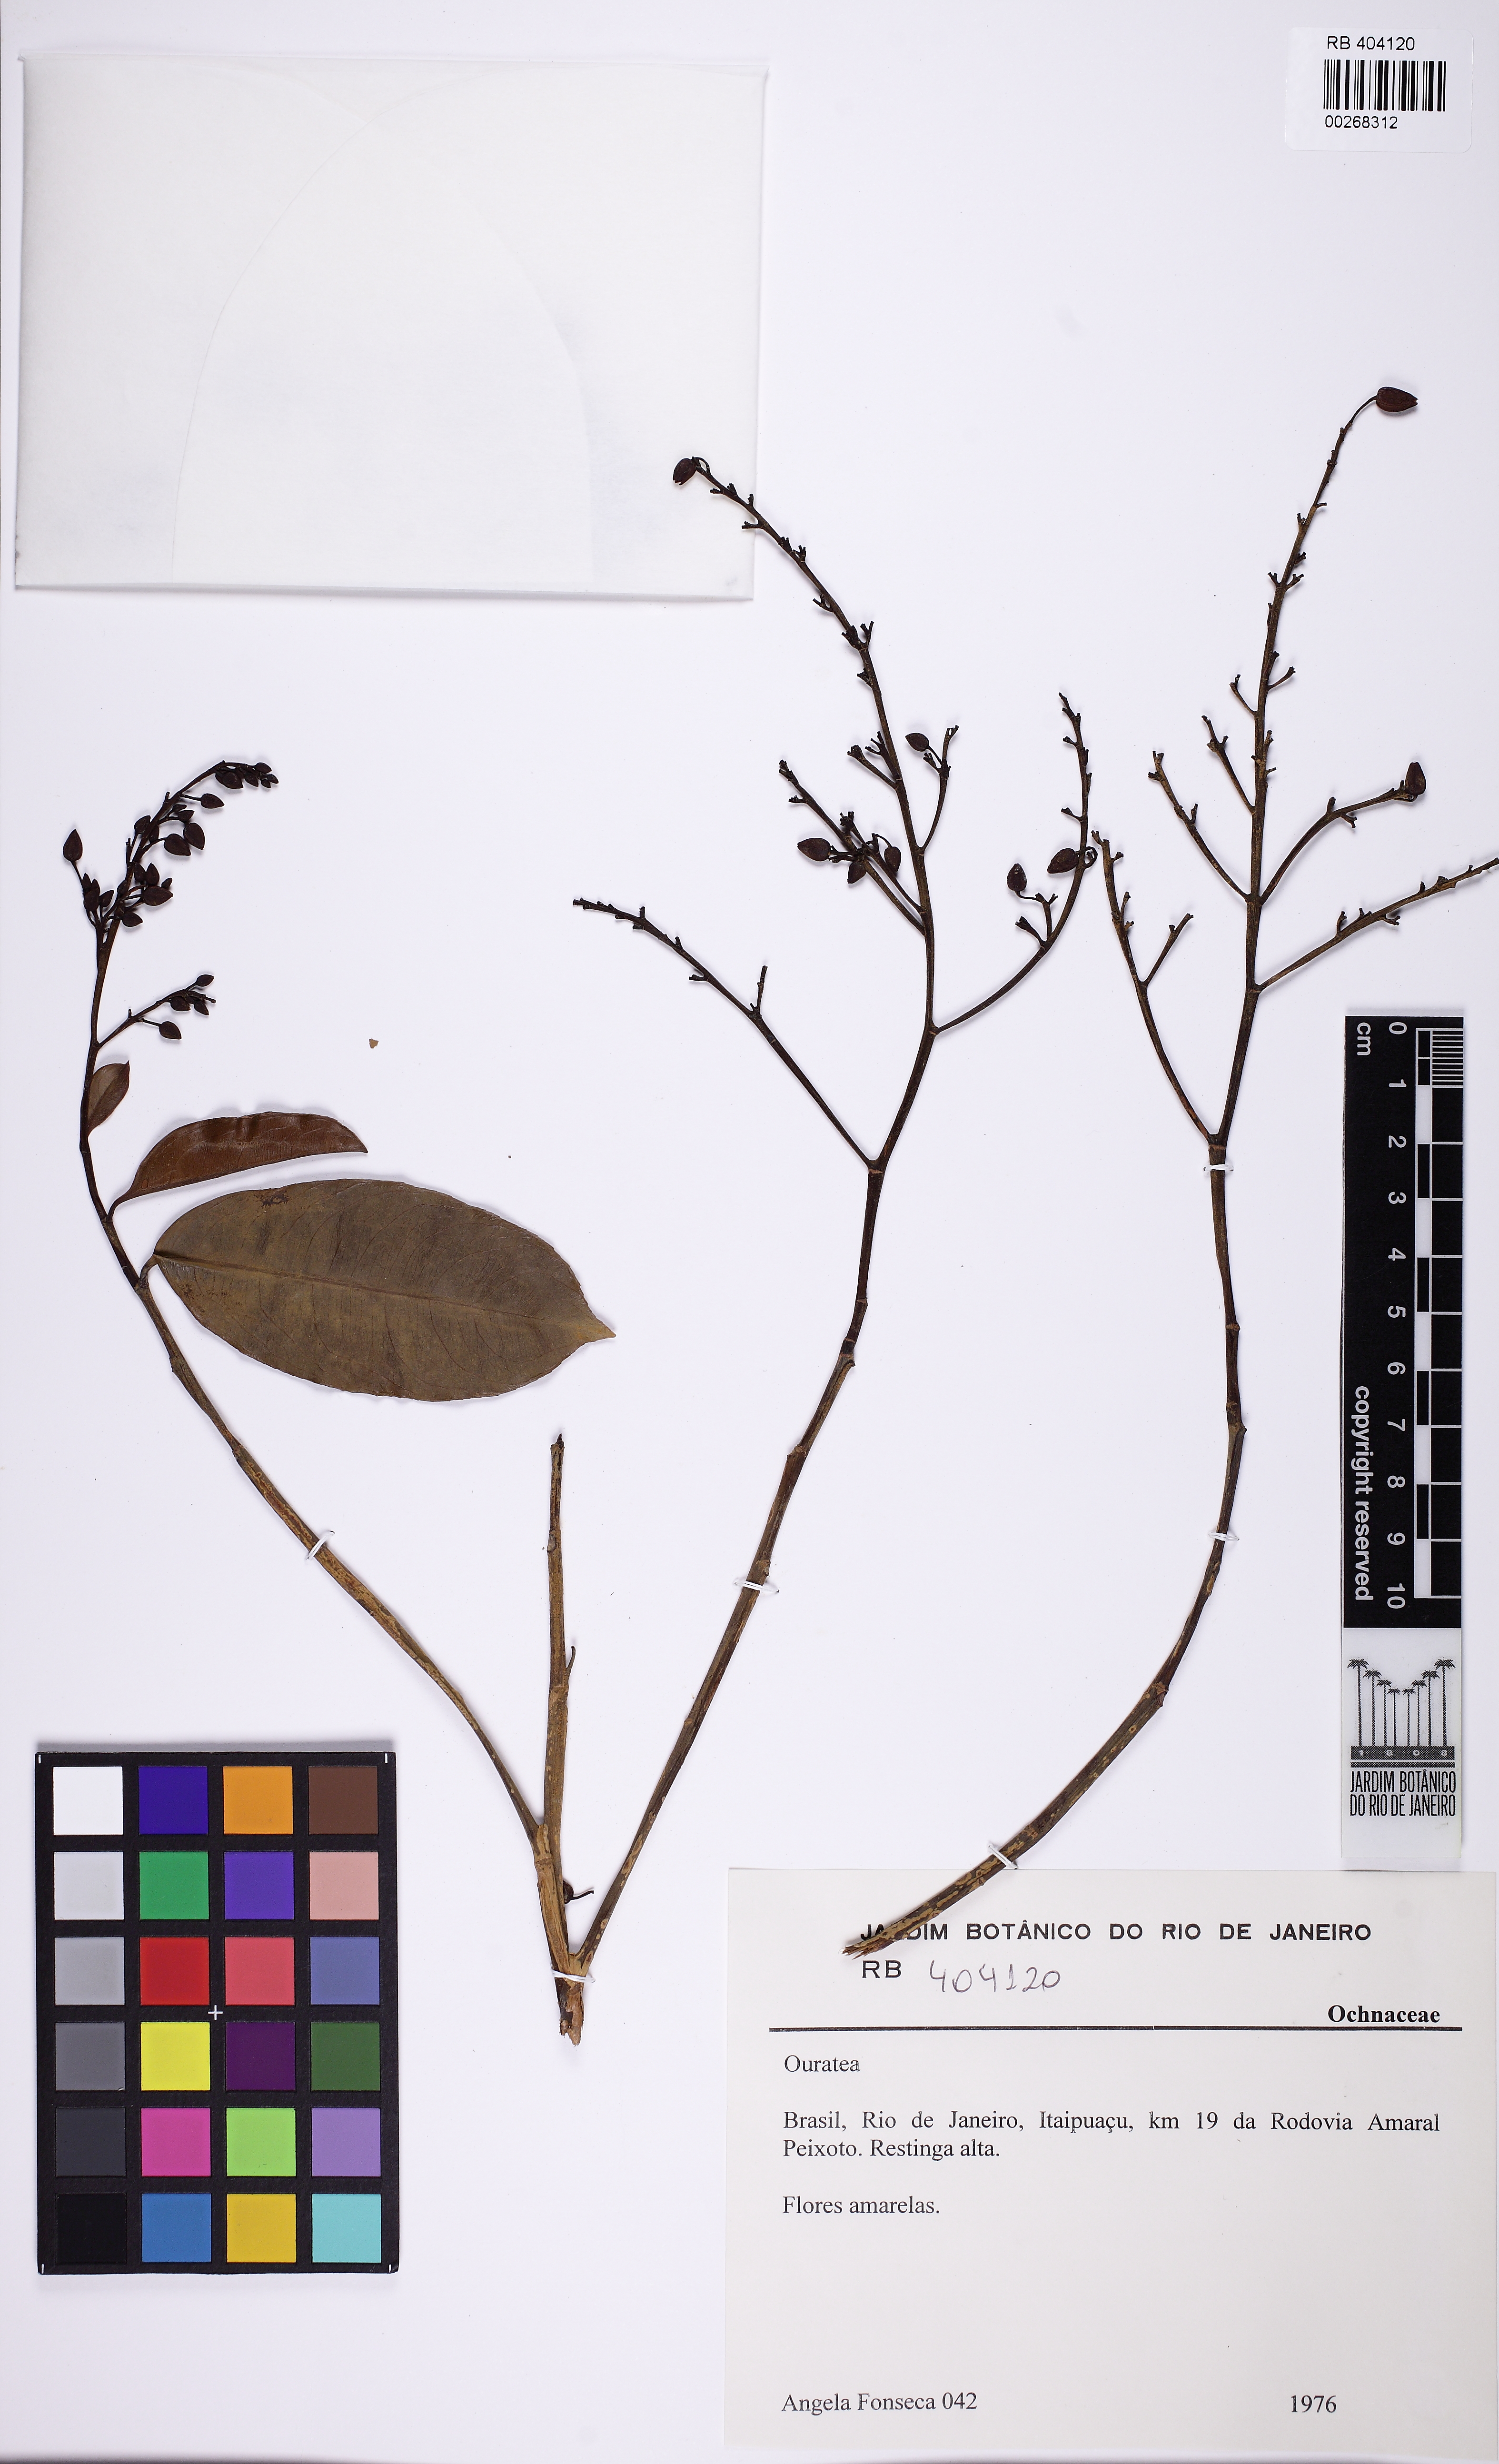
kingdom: Plantae
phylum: Tracheophyta
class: Magnoliopsida
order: Malpighiales
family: Ochnaceae
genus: Ouratea
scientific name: Ouratea
